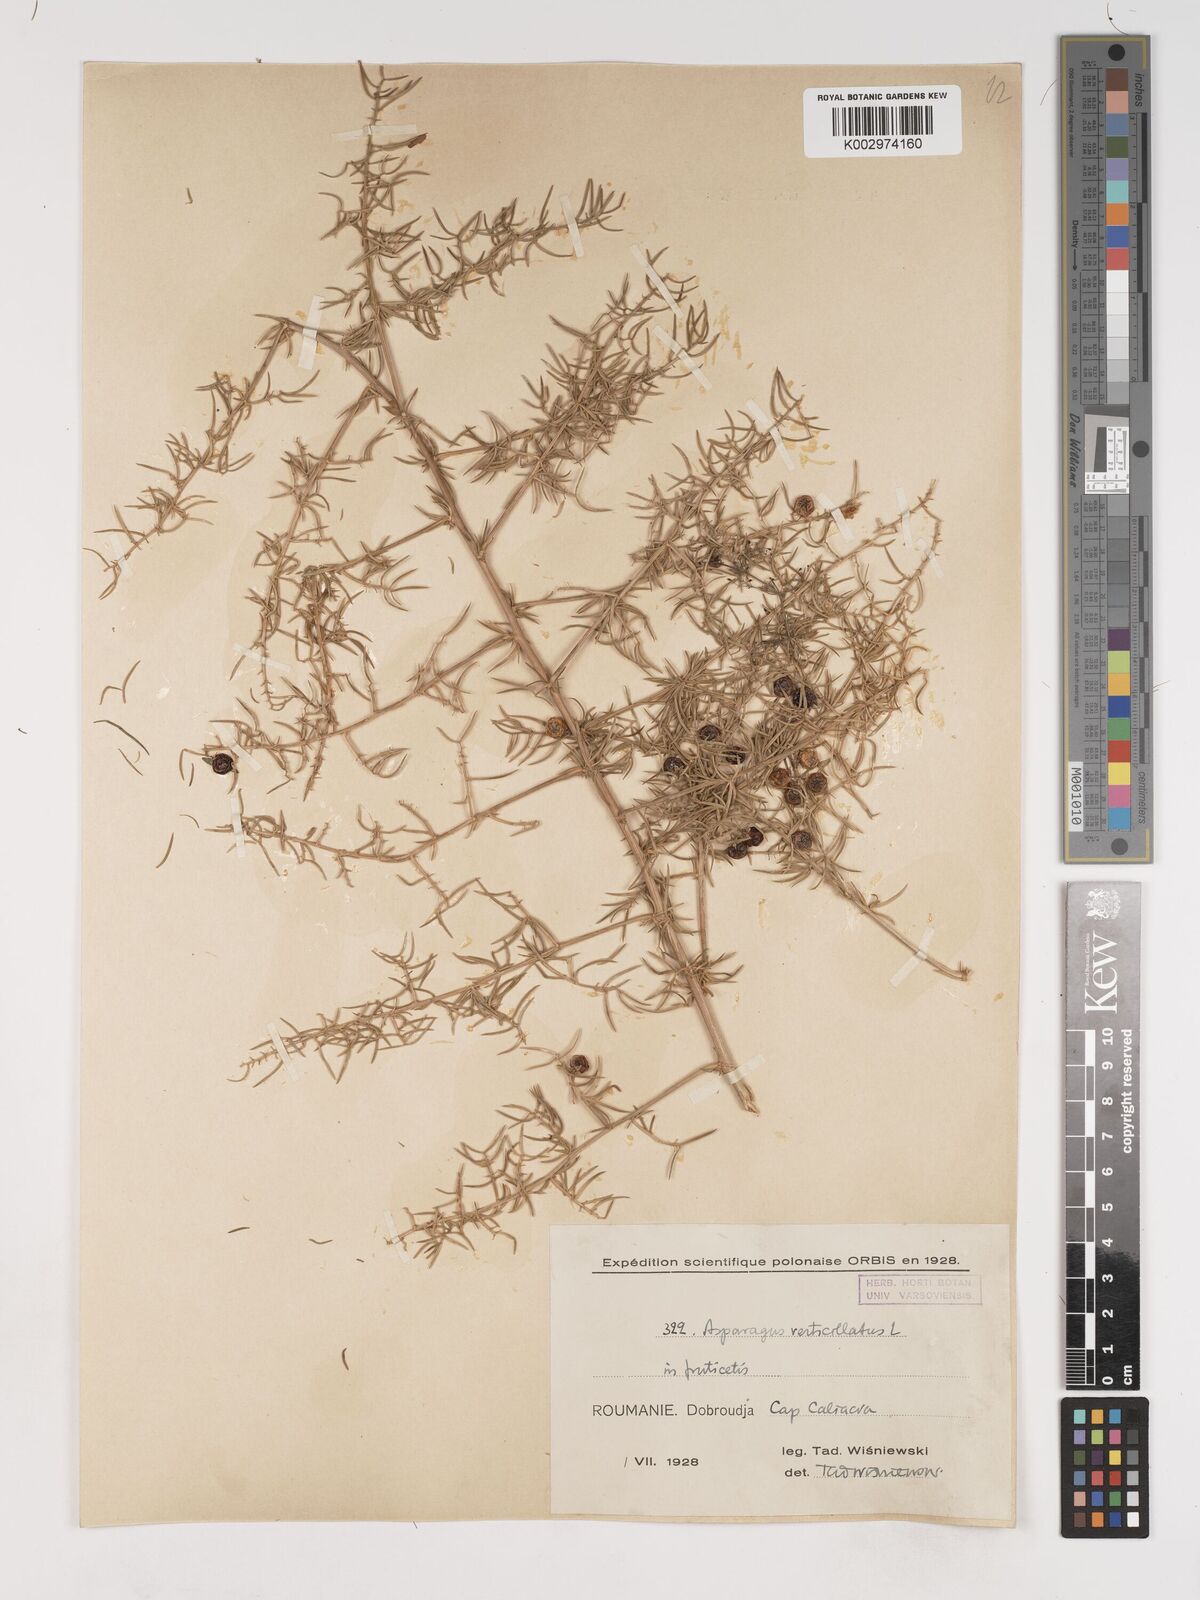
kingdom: Plantae
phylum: Tracheophyta
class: Liliopsida
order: Asparagales
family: Asparagaceae
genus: Asparagus
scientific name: Asparagus verticillatus
